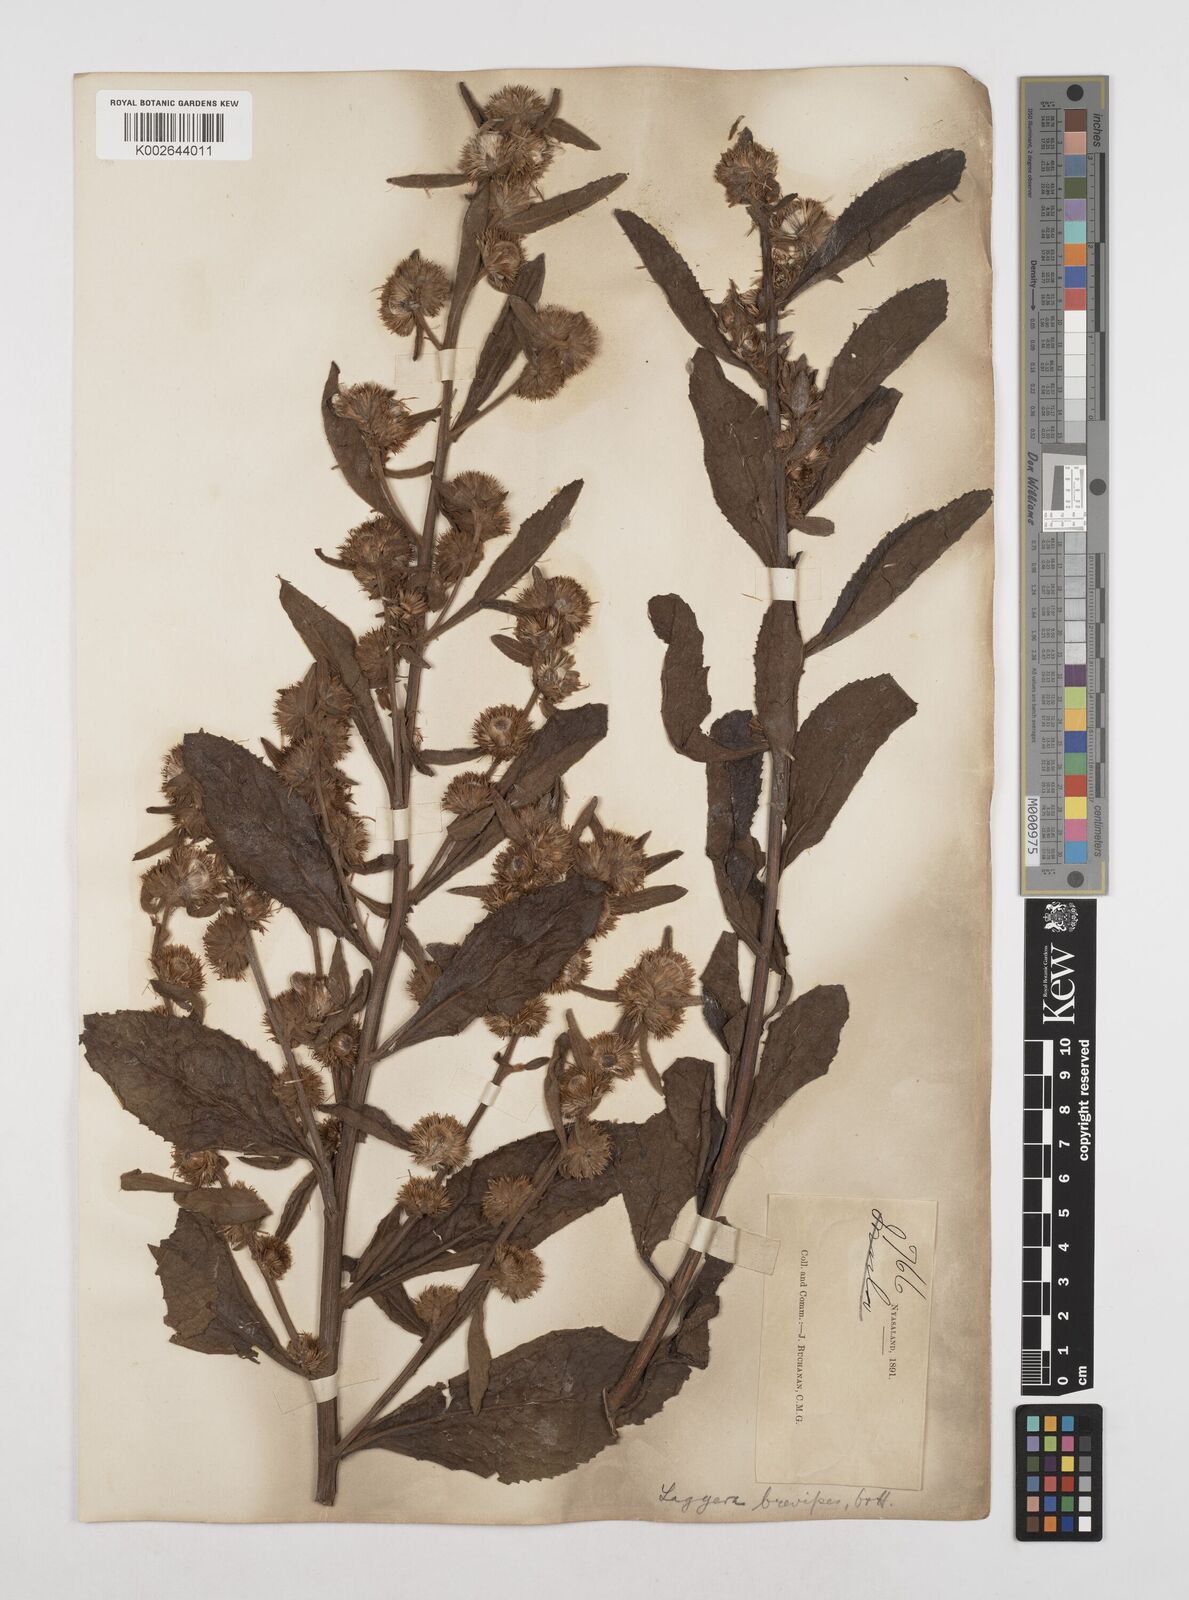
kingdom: Plantae
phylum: Tracheophyta
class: Magnoliopsida
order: Asterales
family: Asteraceae
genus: Laggera
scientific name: Laggera brevipes
